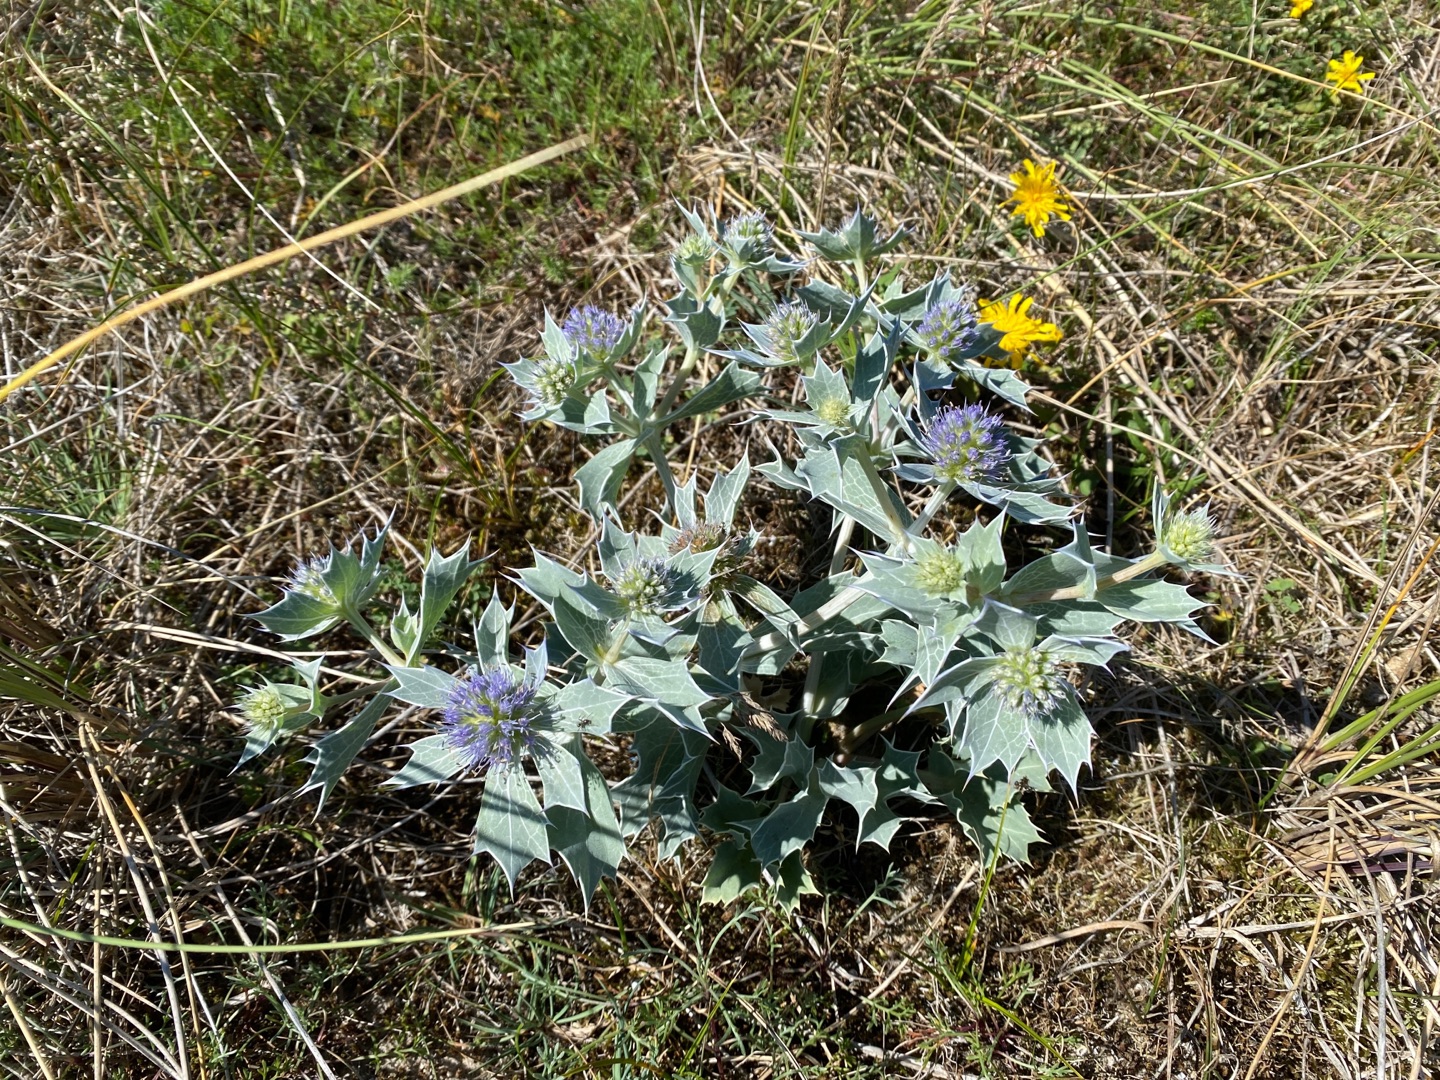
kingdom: Plantae
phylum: Tracheophyta
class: Magnoliopsida
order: Apiales
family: Apiaceae
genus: Eryngium
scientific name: Eryngium maritimum
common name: Strand-mandstro
